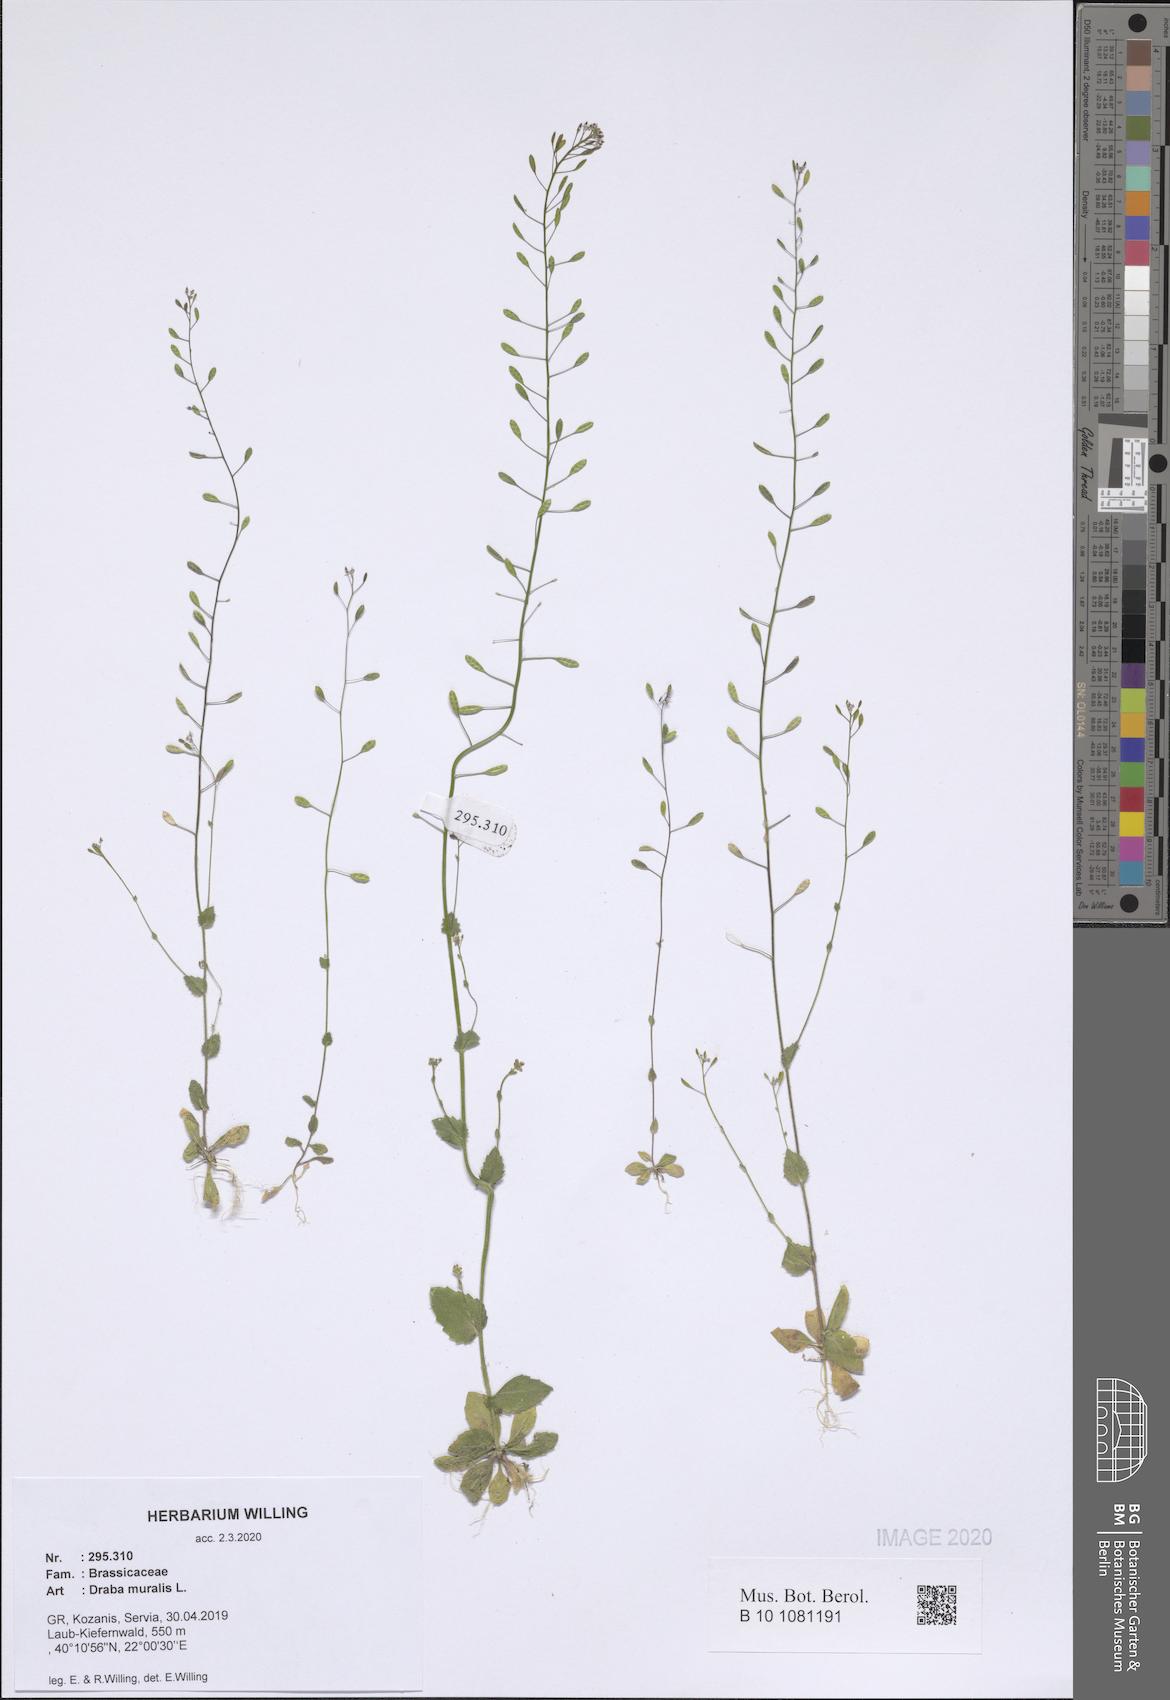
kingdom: Plantae
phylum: Tracheophyta
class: Magnoliopsida
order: Brassicales
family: Brassicaceae
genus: Drabella
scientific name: Drabella muralis
